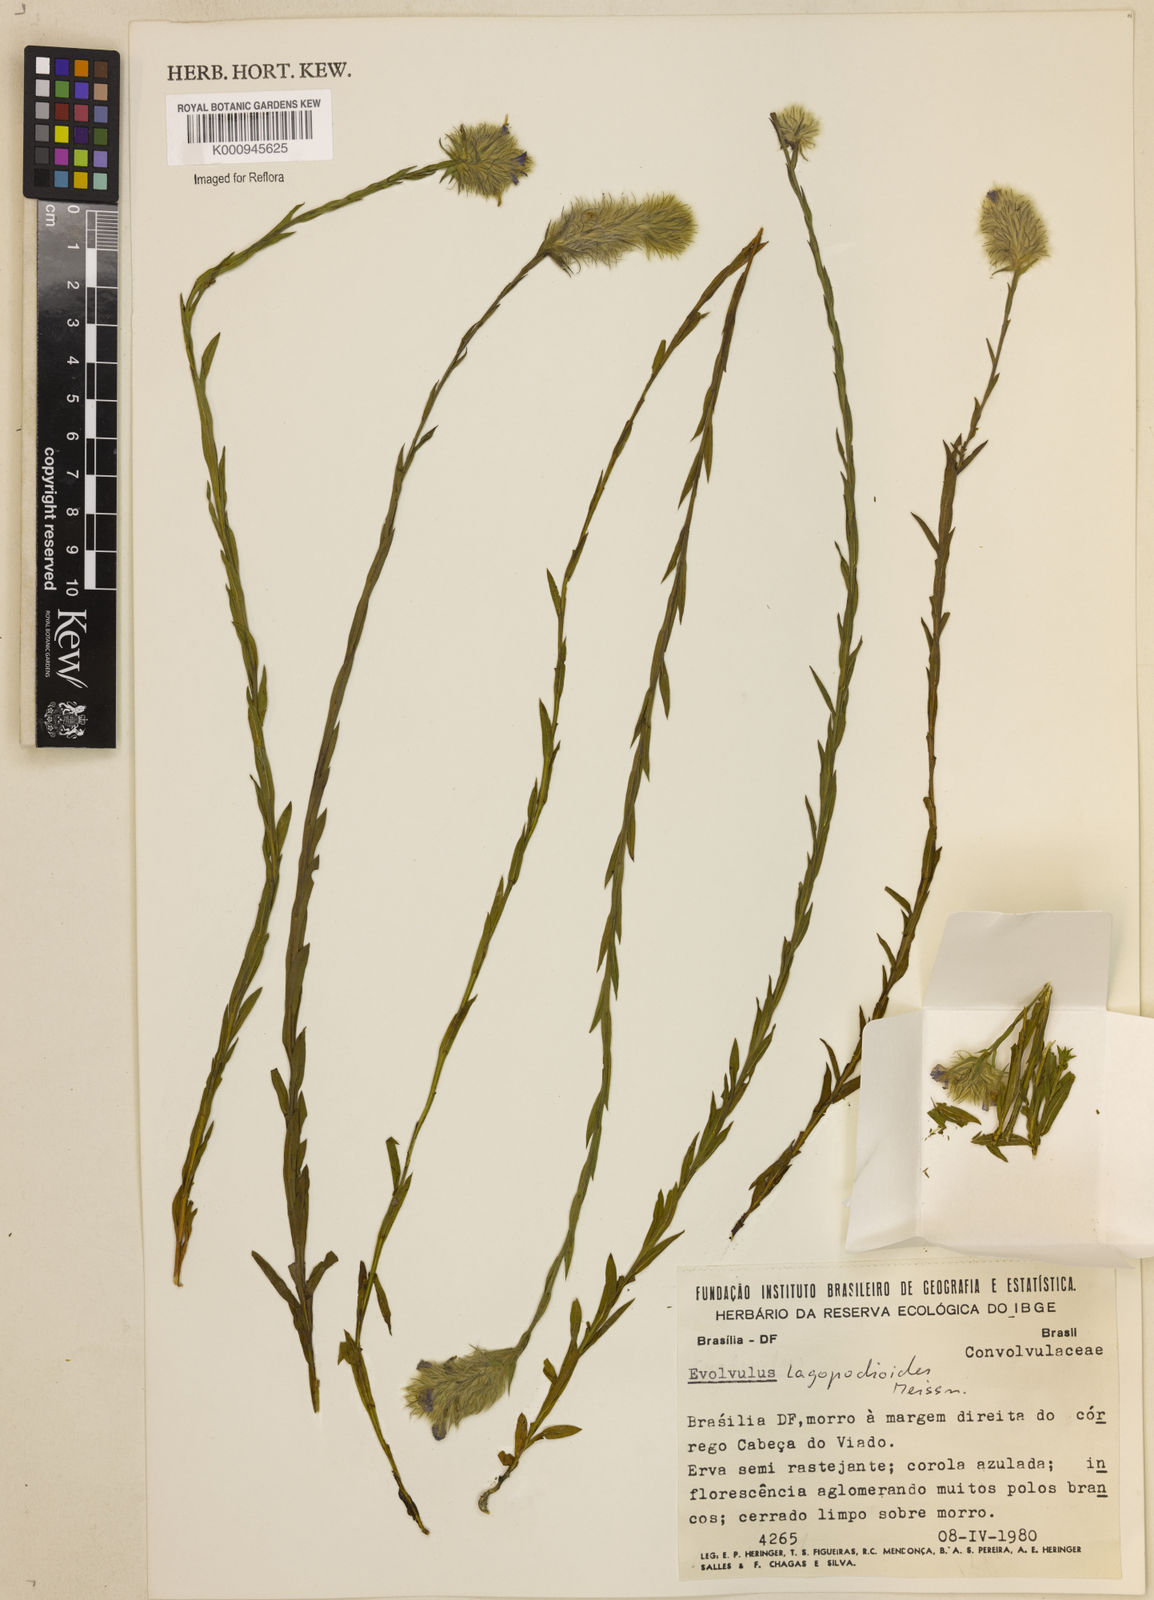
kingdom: Plantae
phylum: Tracheophyta
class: Magnoliopsida
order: Solanales
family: Convolvulaceae
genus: Evolvulus
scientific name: Evolvulus lagopodioides
